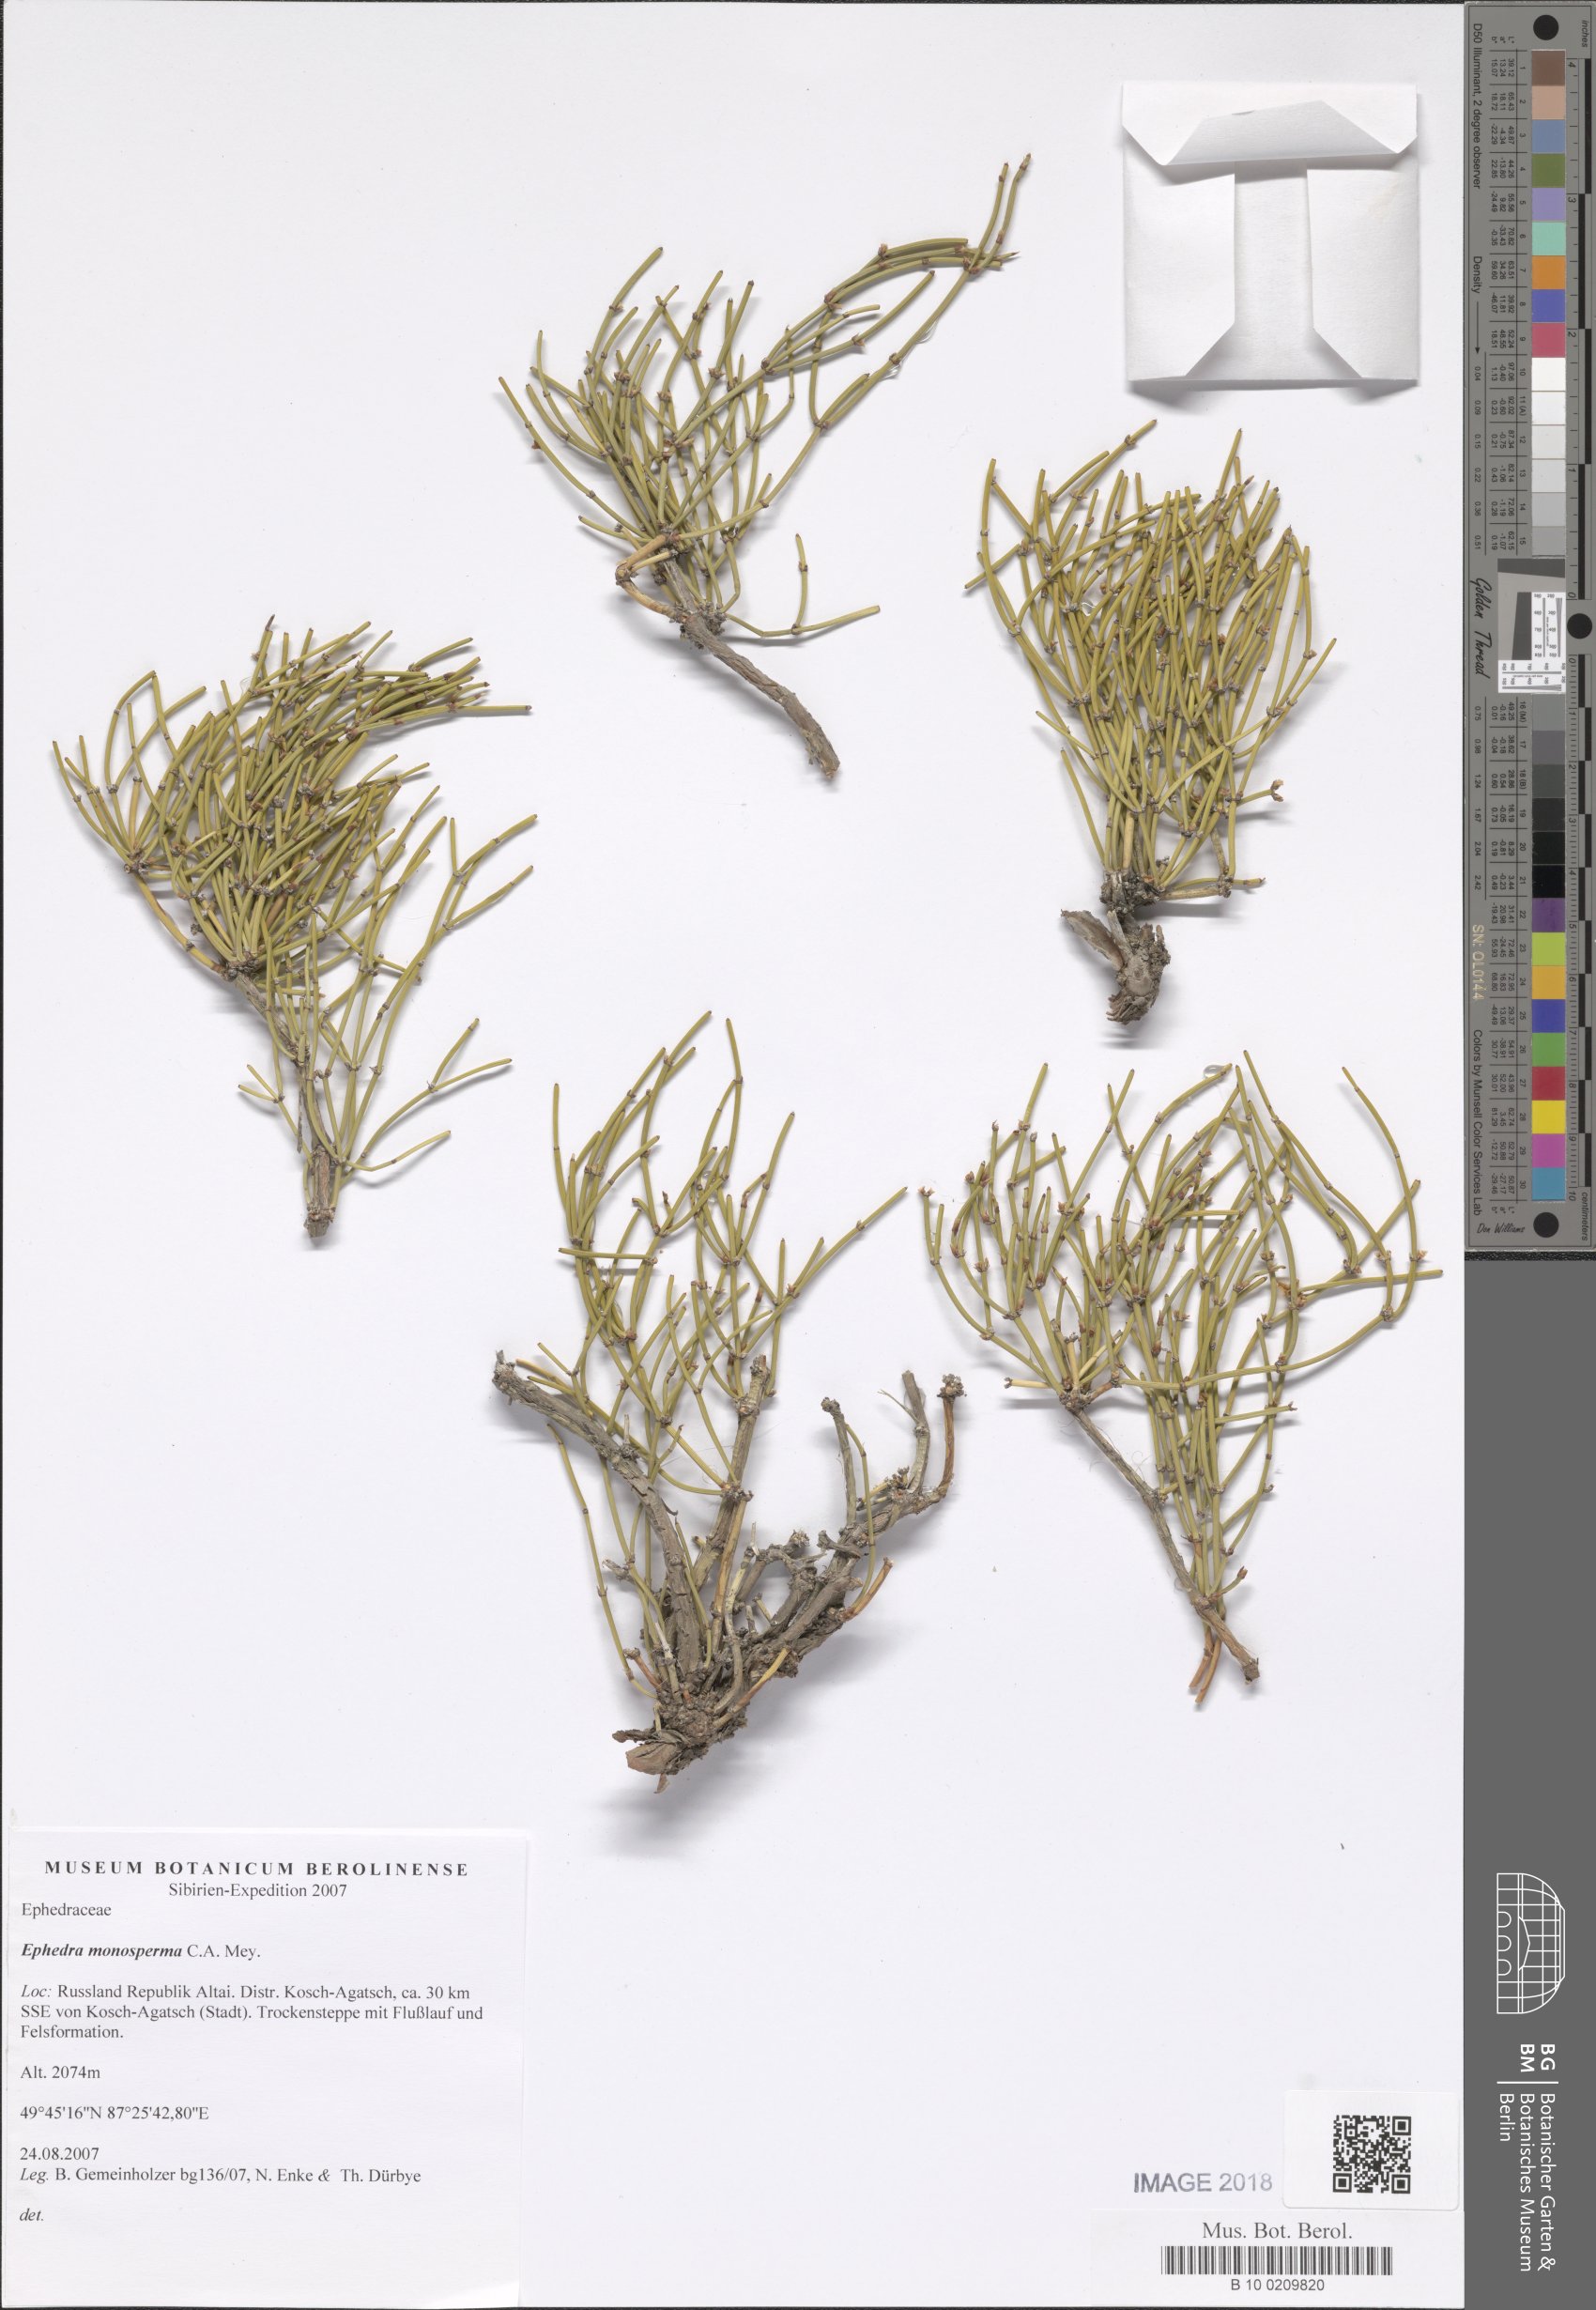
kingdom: Plantae
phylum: Tracheophyta
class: Gnetopsida
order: Ephedrales
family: Ephedraceae
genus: Ephedra
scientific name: Ephedra monosperma
